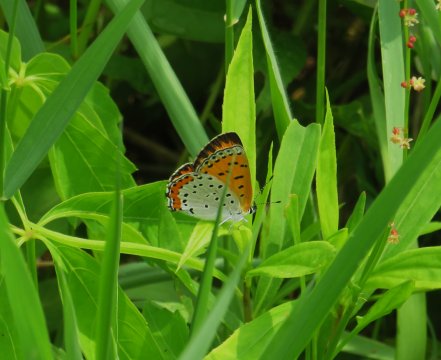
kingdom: Animalia
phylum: Arthropoda
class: Insecta
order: Lepidoptera
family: Sesiidae
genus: Sesia
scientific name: Sesia Lycaena hyllus
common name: Bronze Copper
